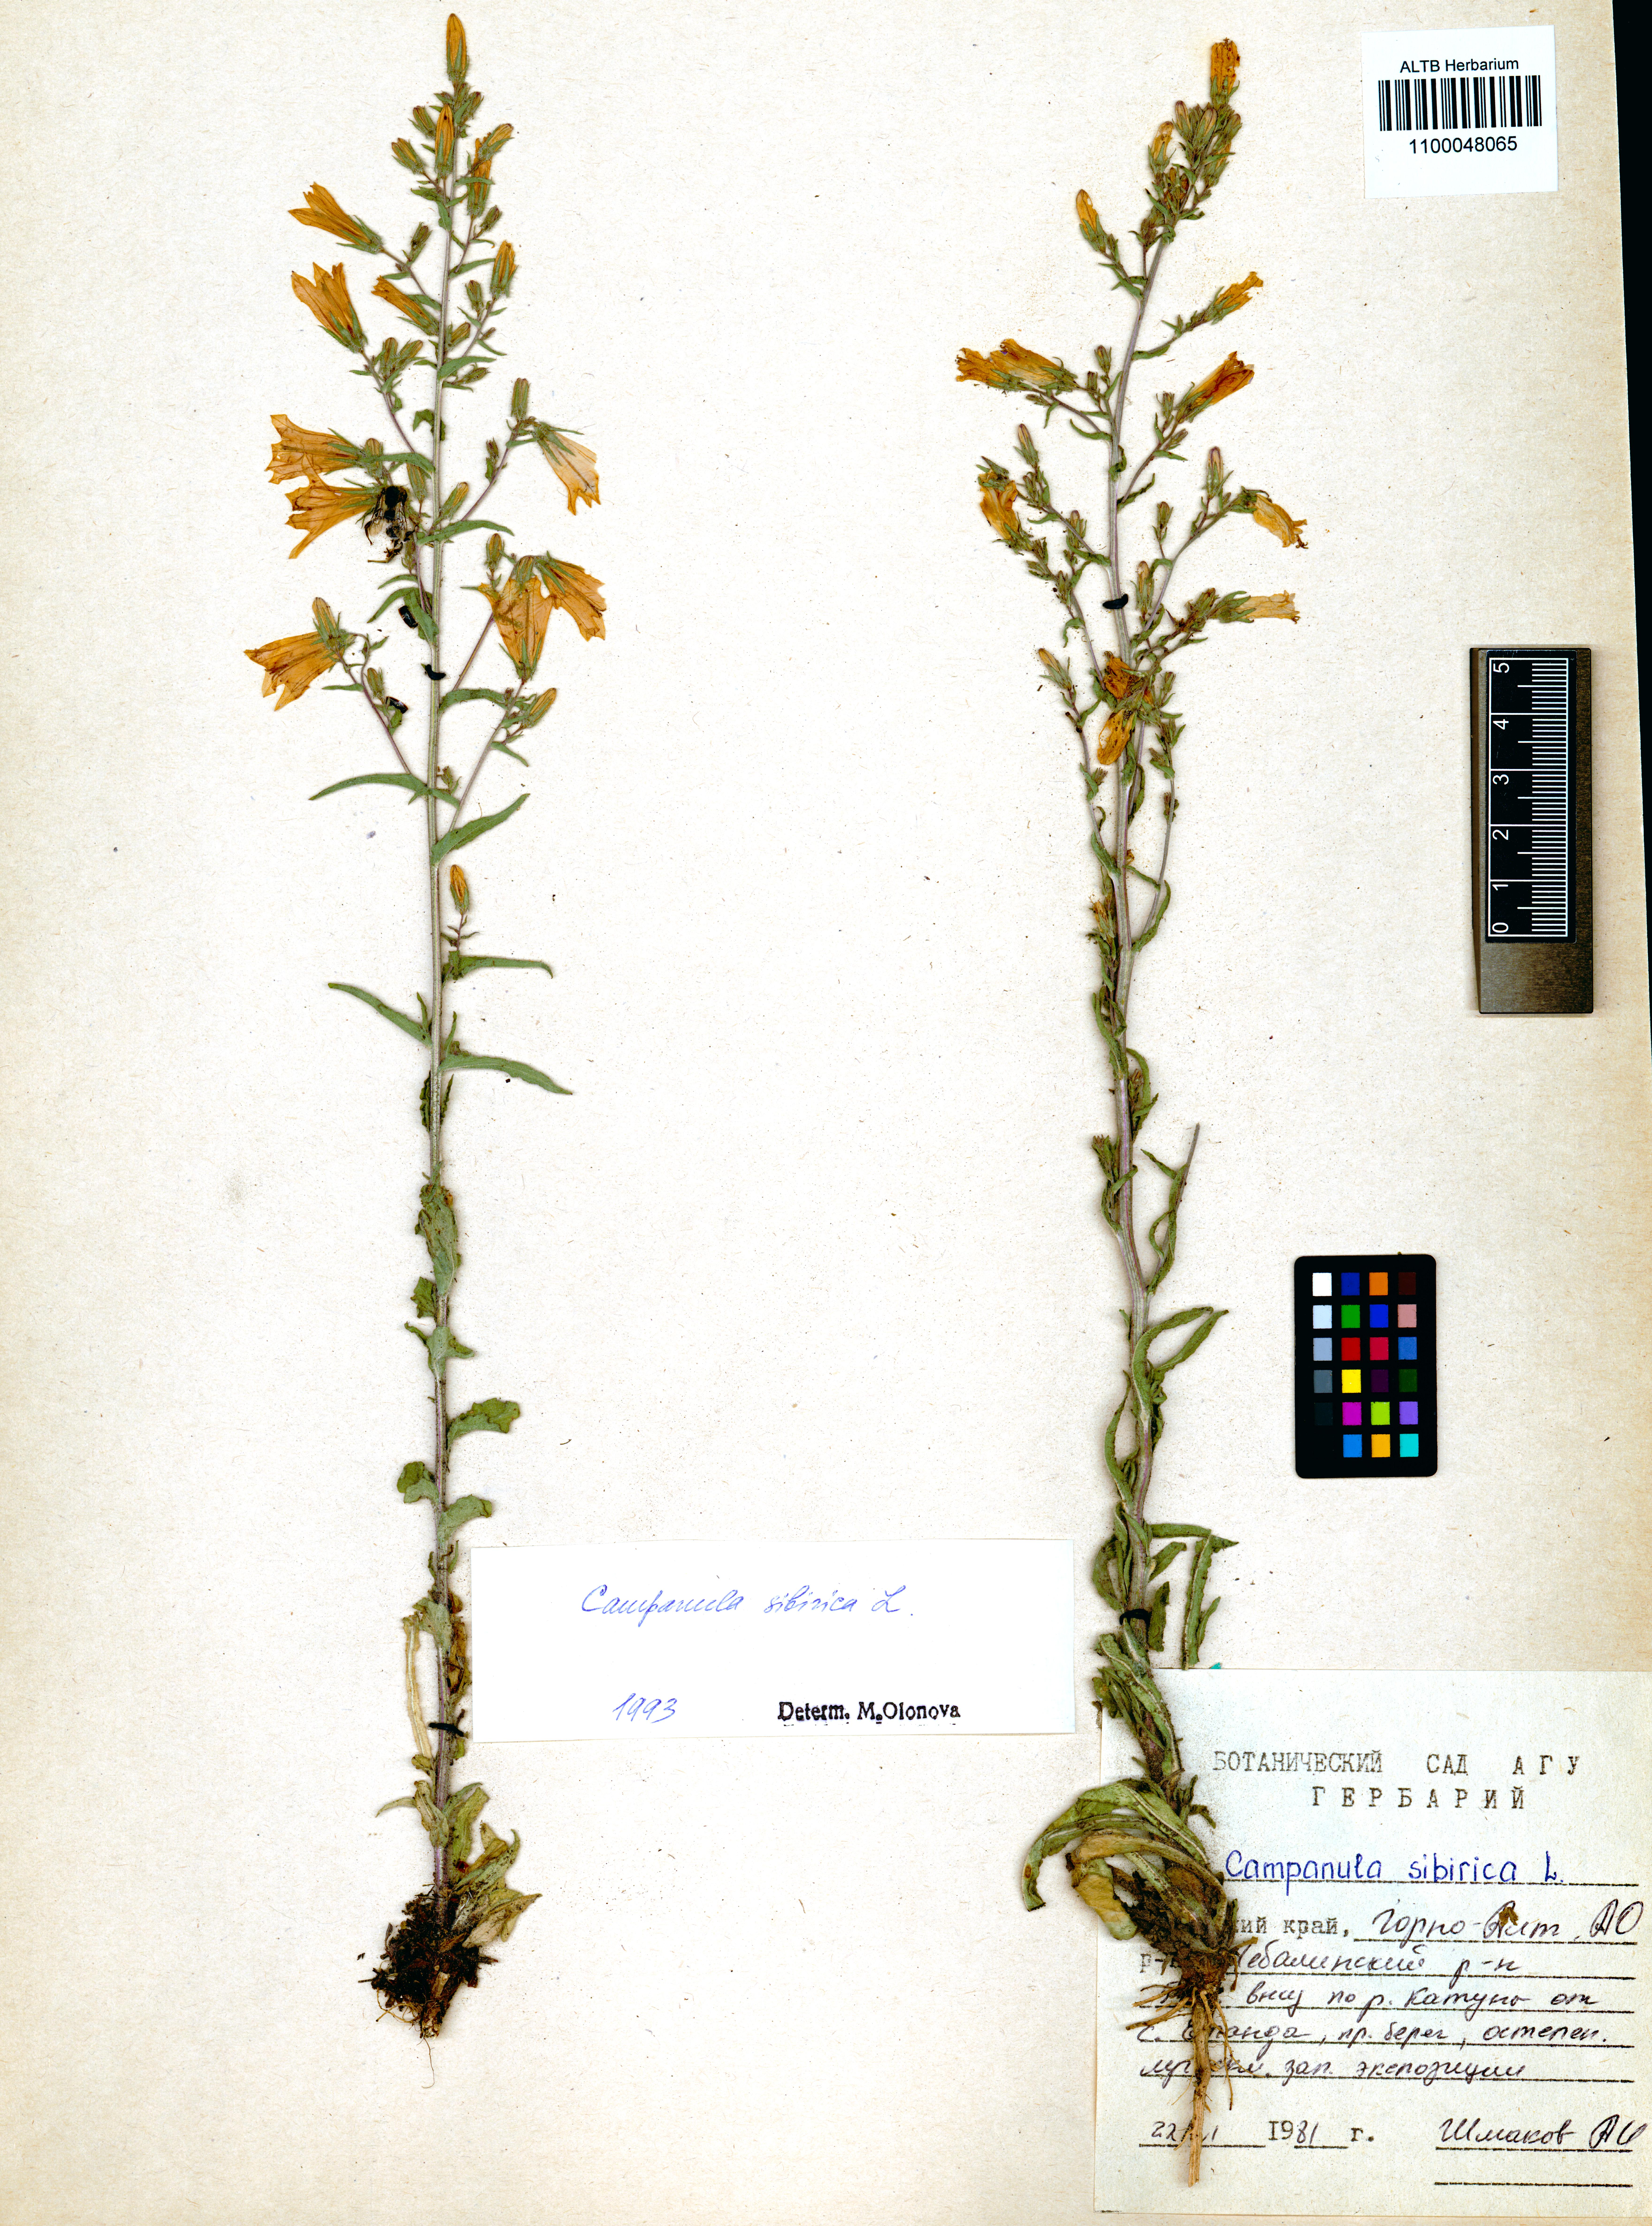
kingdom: Plantae
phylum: Tracheophyta
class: Magnoliopsida
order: Asterales
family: Campanulaceae
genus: Campanula
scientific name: Campanula sibirica
